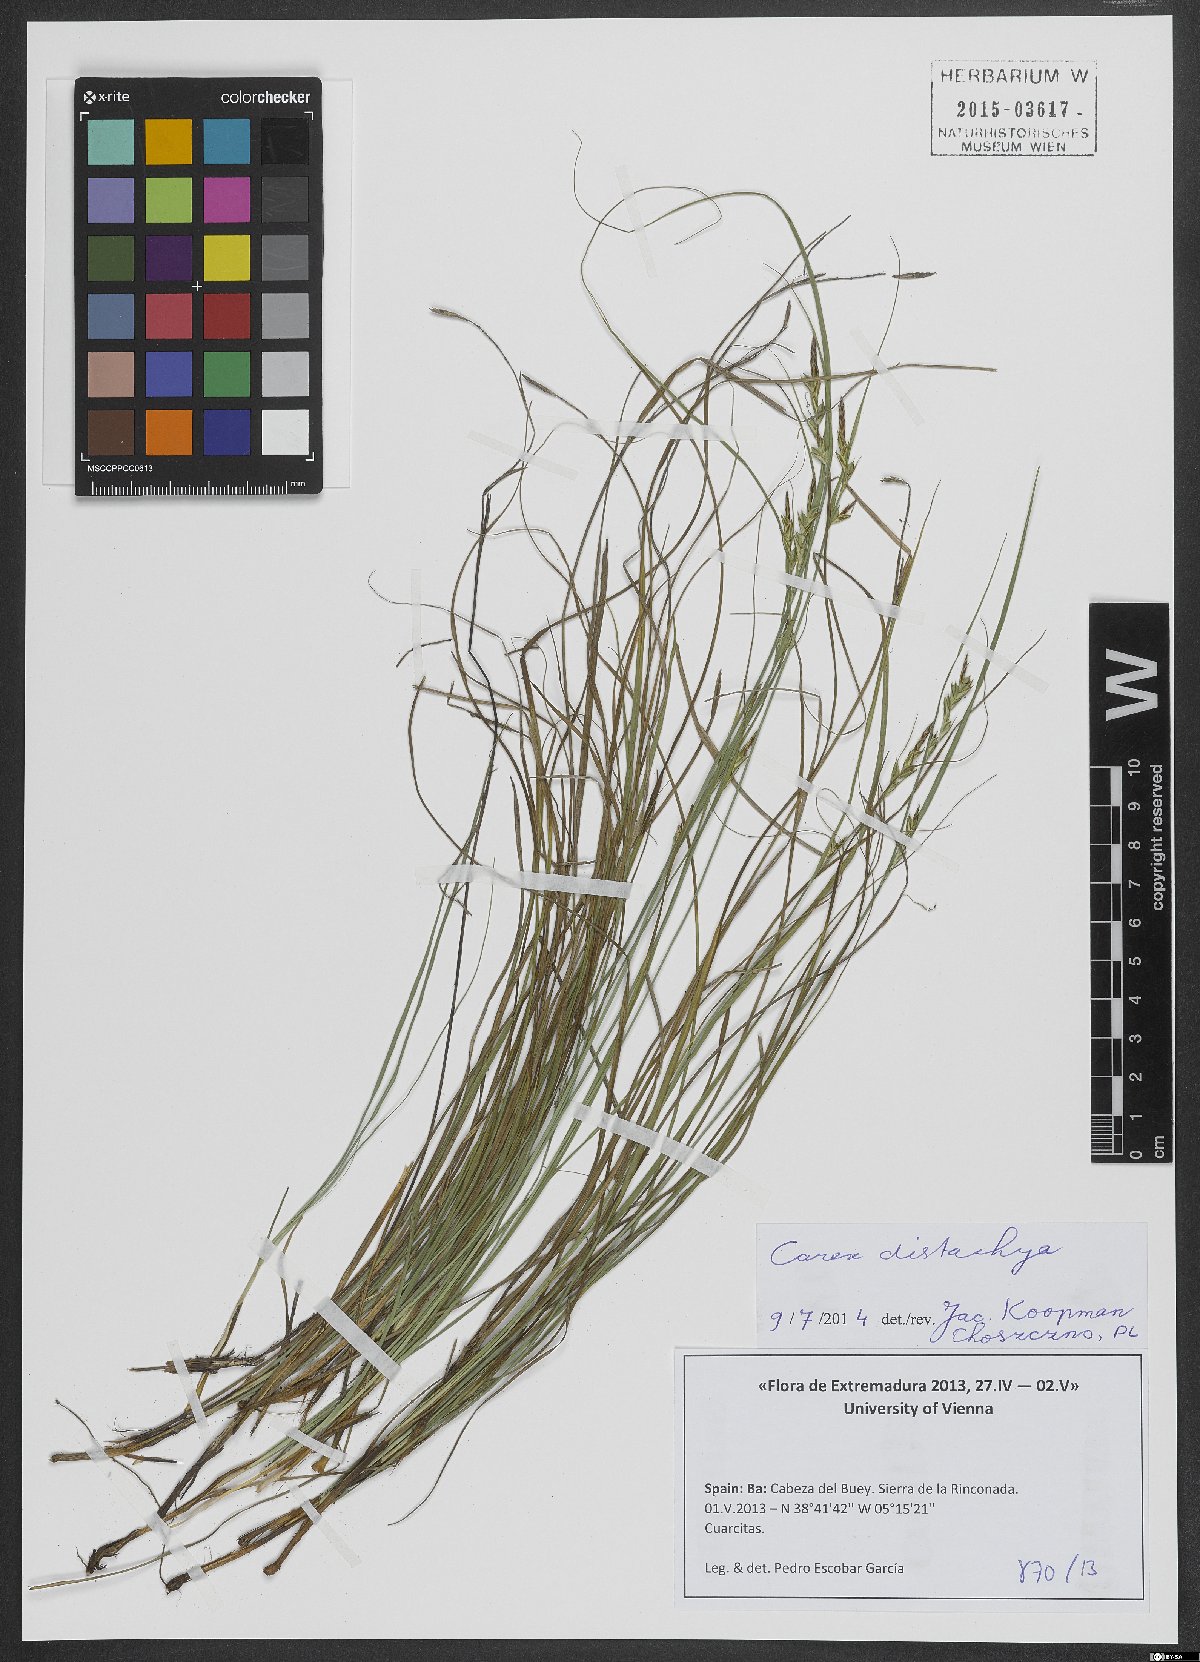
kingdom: Plantae
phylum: Tracheophyta
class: Liliopsida
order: Poales
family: Cyperaceae
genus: Carex
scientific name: Carex distachya
